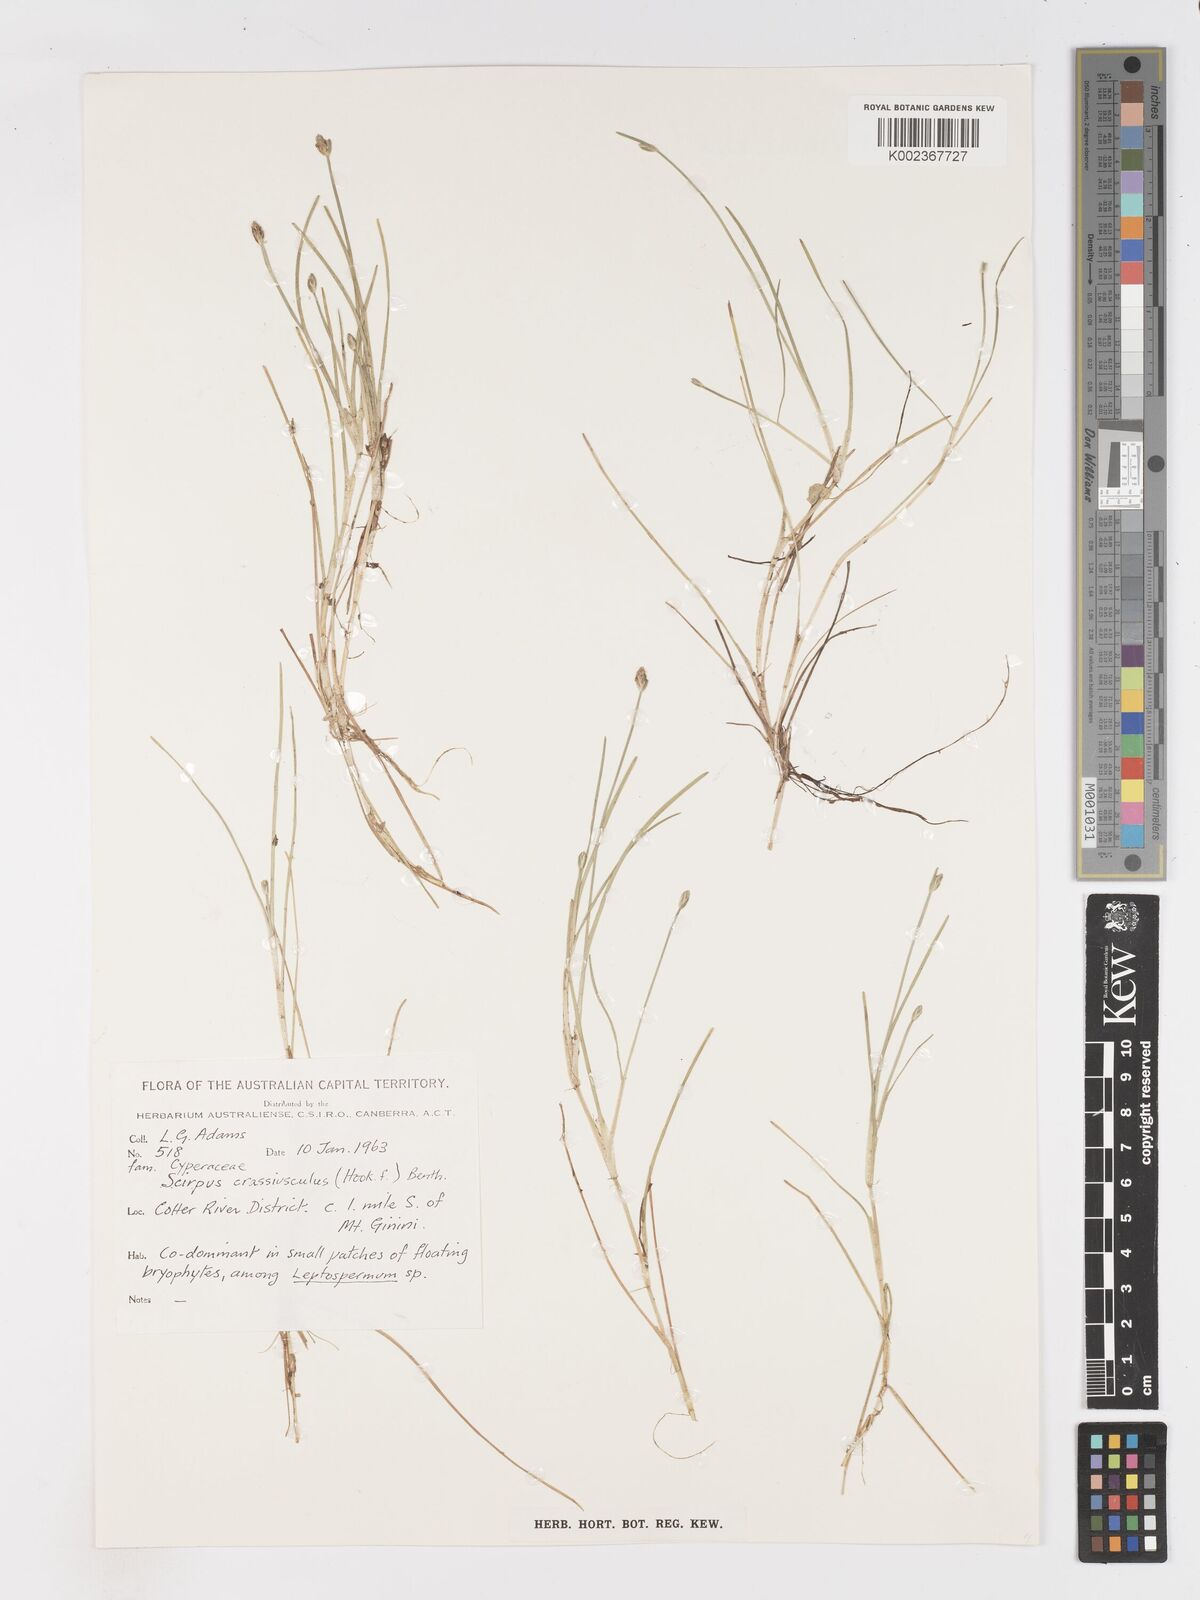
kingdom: Plantae
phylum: Tracheophyta
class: Liliopsida
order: Poales
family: Cyperaceae
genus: Isolepis
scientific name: Isolepis crassiuscula
